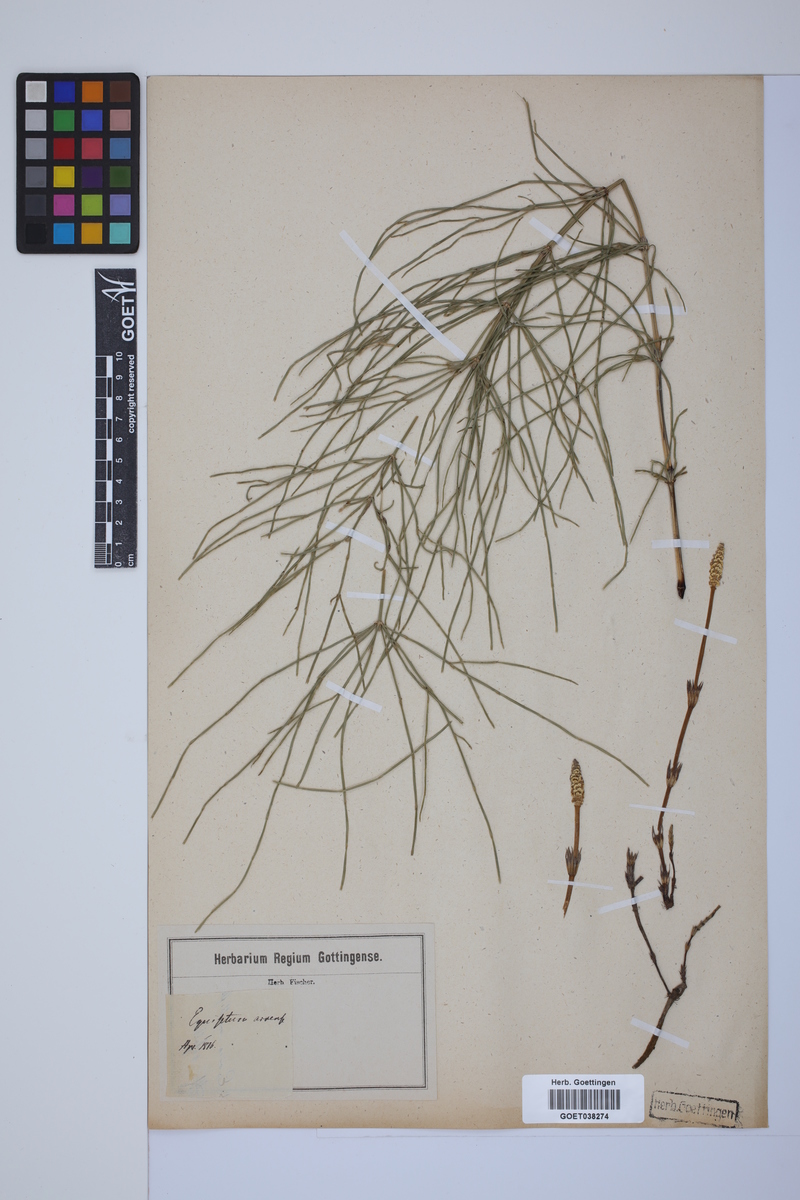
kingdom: Plantae
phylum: Tracheophyta
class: Polypodiopsida
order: Equisetales
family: Equisetaceae
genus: Equisetum
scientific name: Equisetum arvense
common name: Field horsetail
